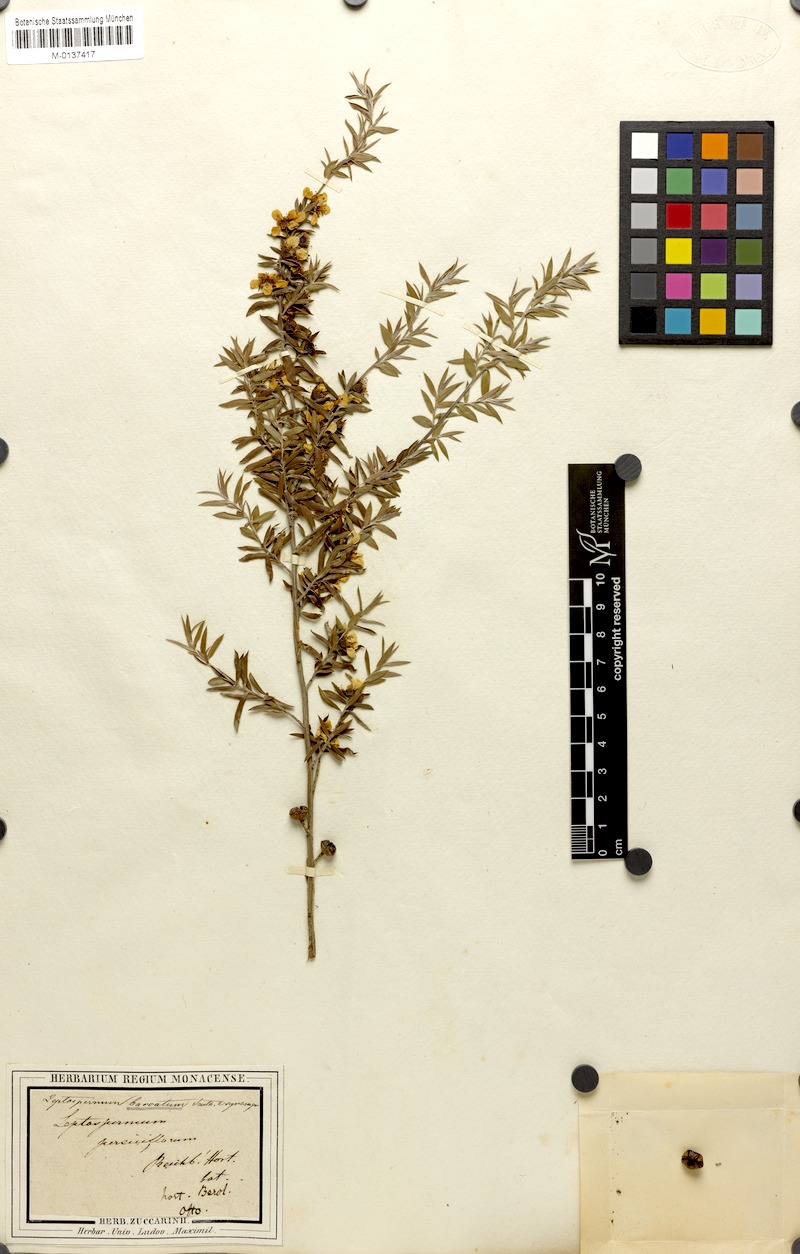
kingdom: Plantae
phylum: Tracheophyta
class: Magnoliopsida
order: Myrtales
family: Myrtaceae
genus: Leptospermum
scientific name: Leptospermum arachnoides
